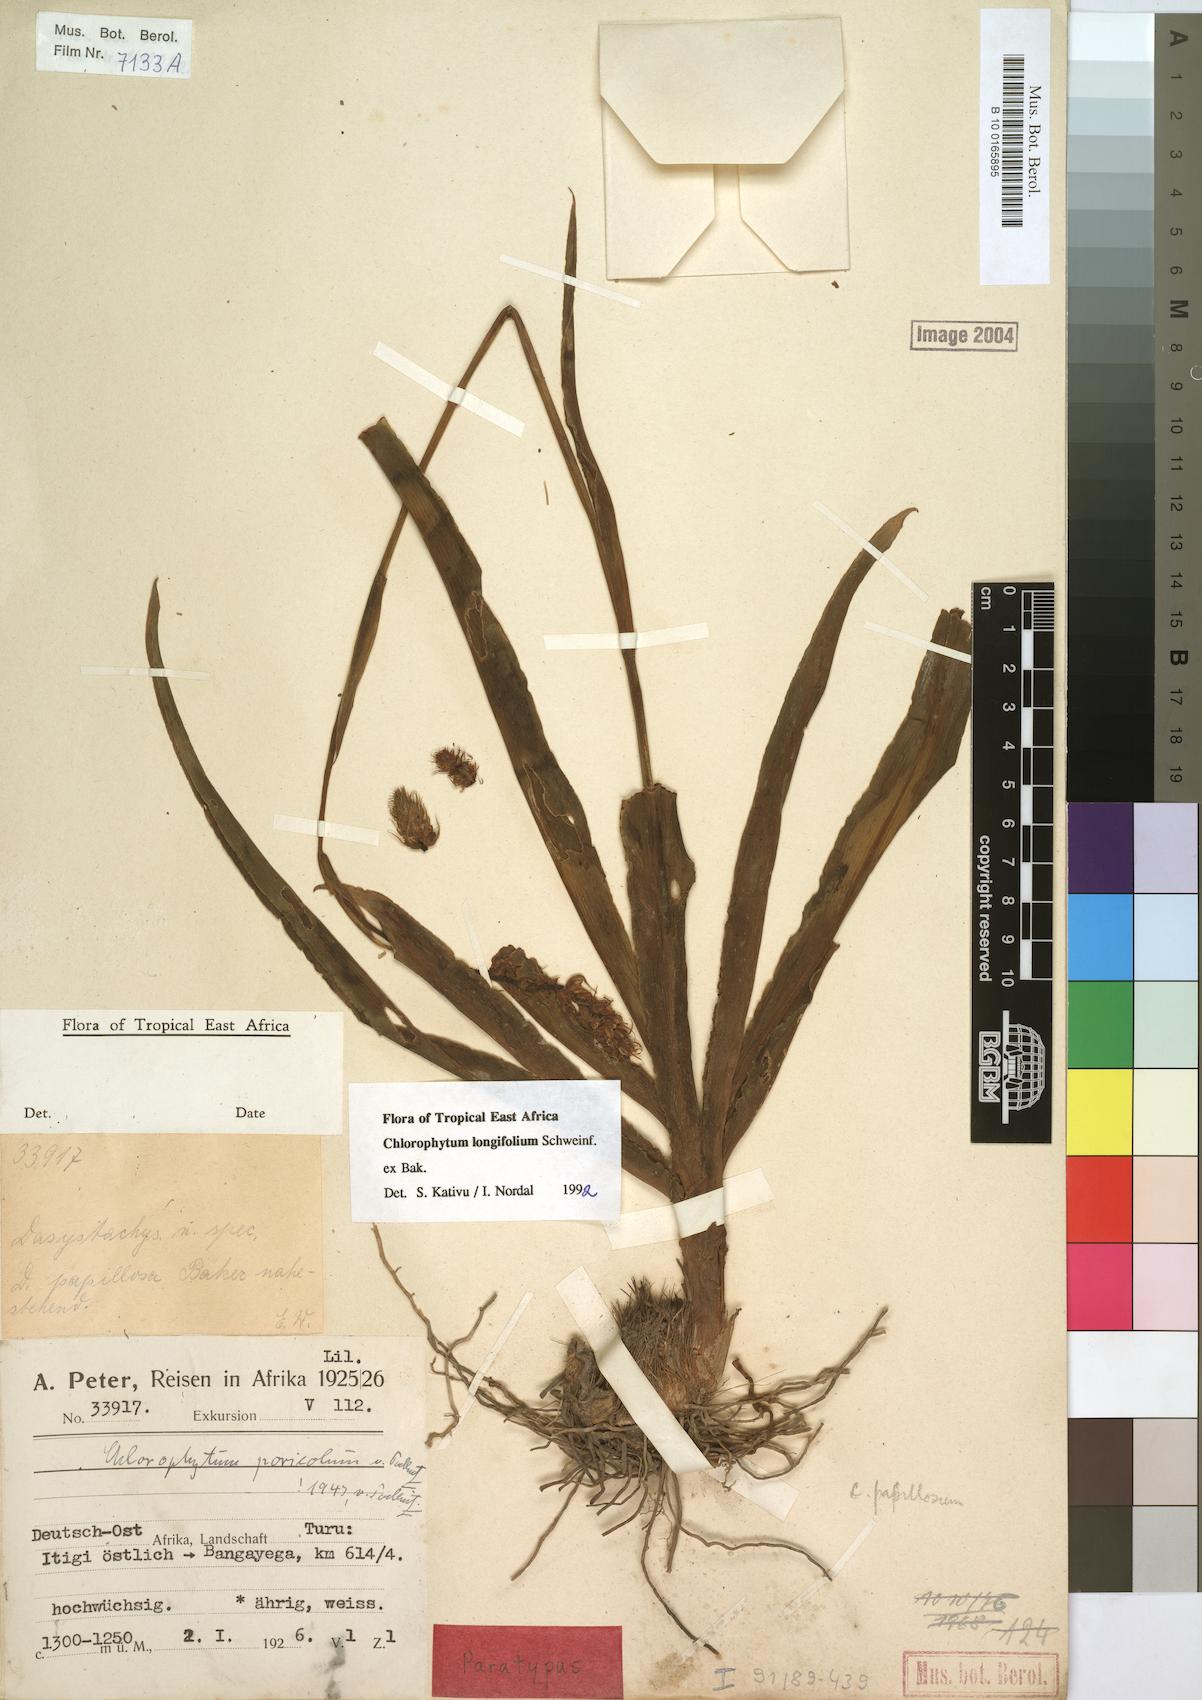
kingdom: Plantae
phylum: Tracheophyta
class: Liliopsida
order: Asparagales
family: Asparagaceae
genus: Chlorophytum
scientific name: Chlorophytum longifolium
